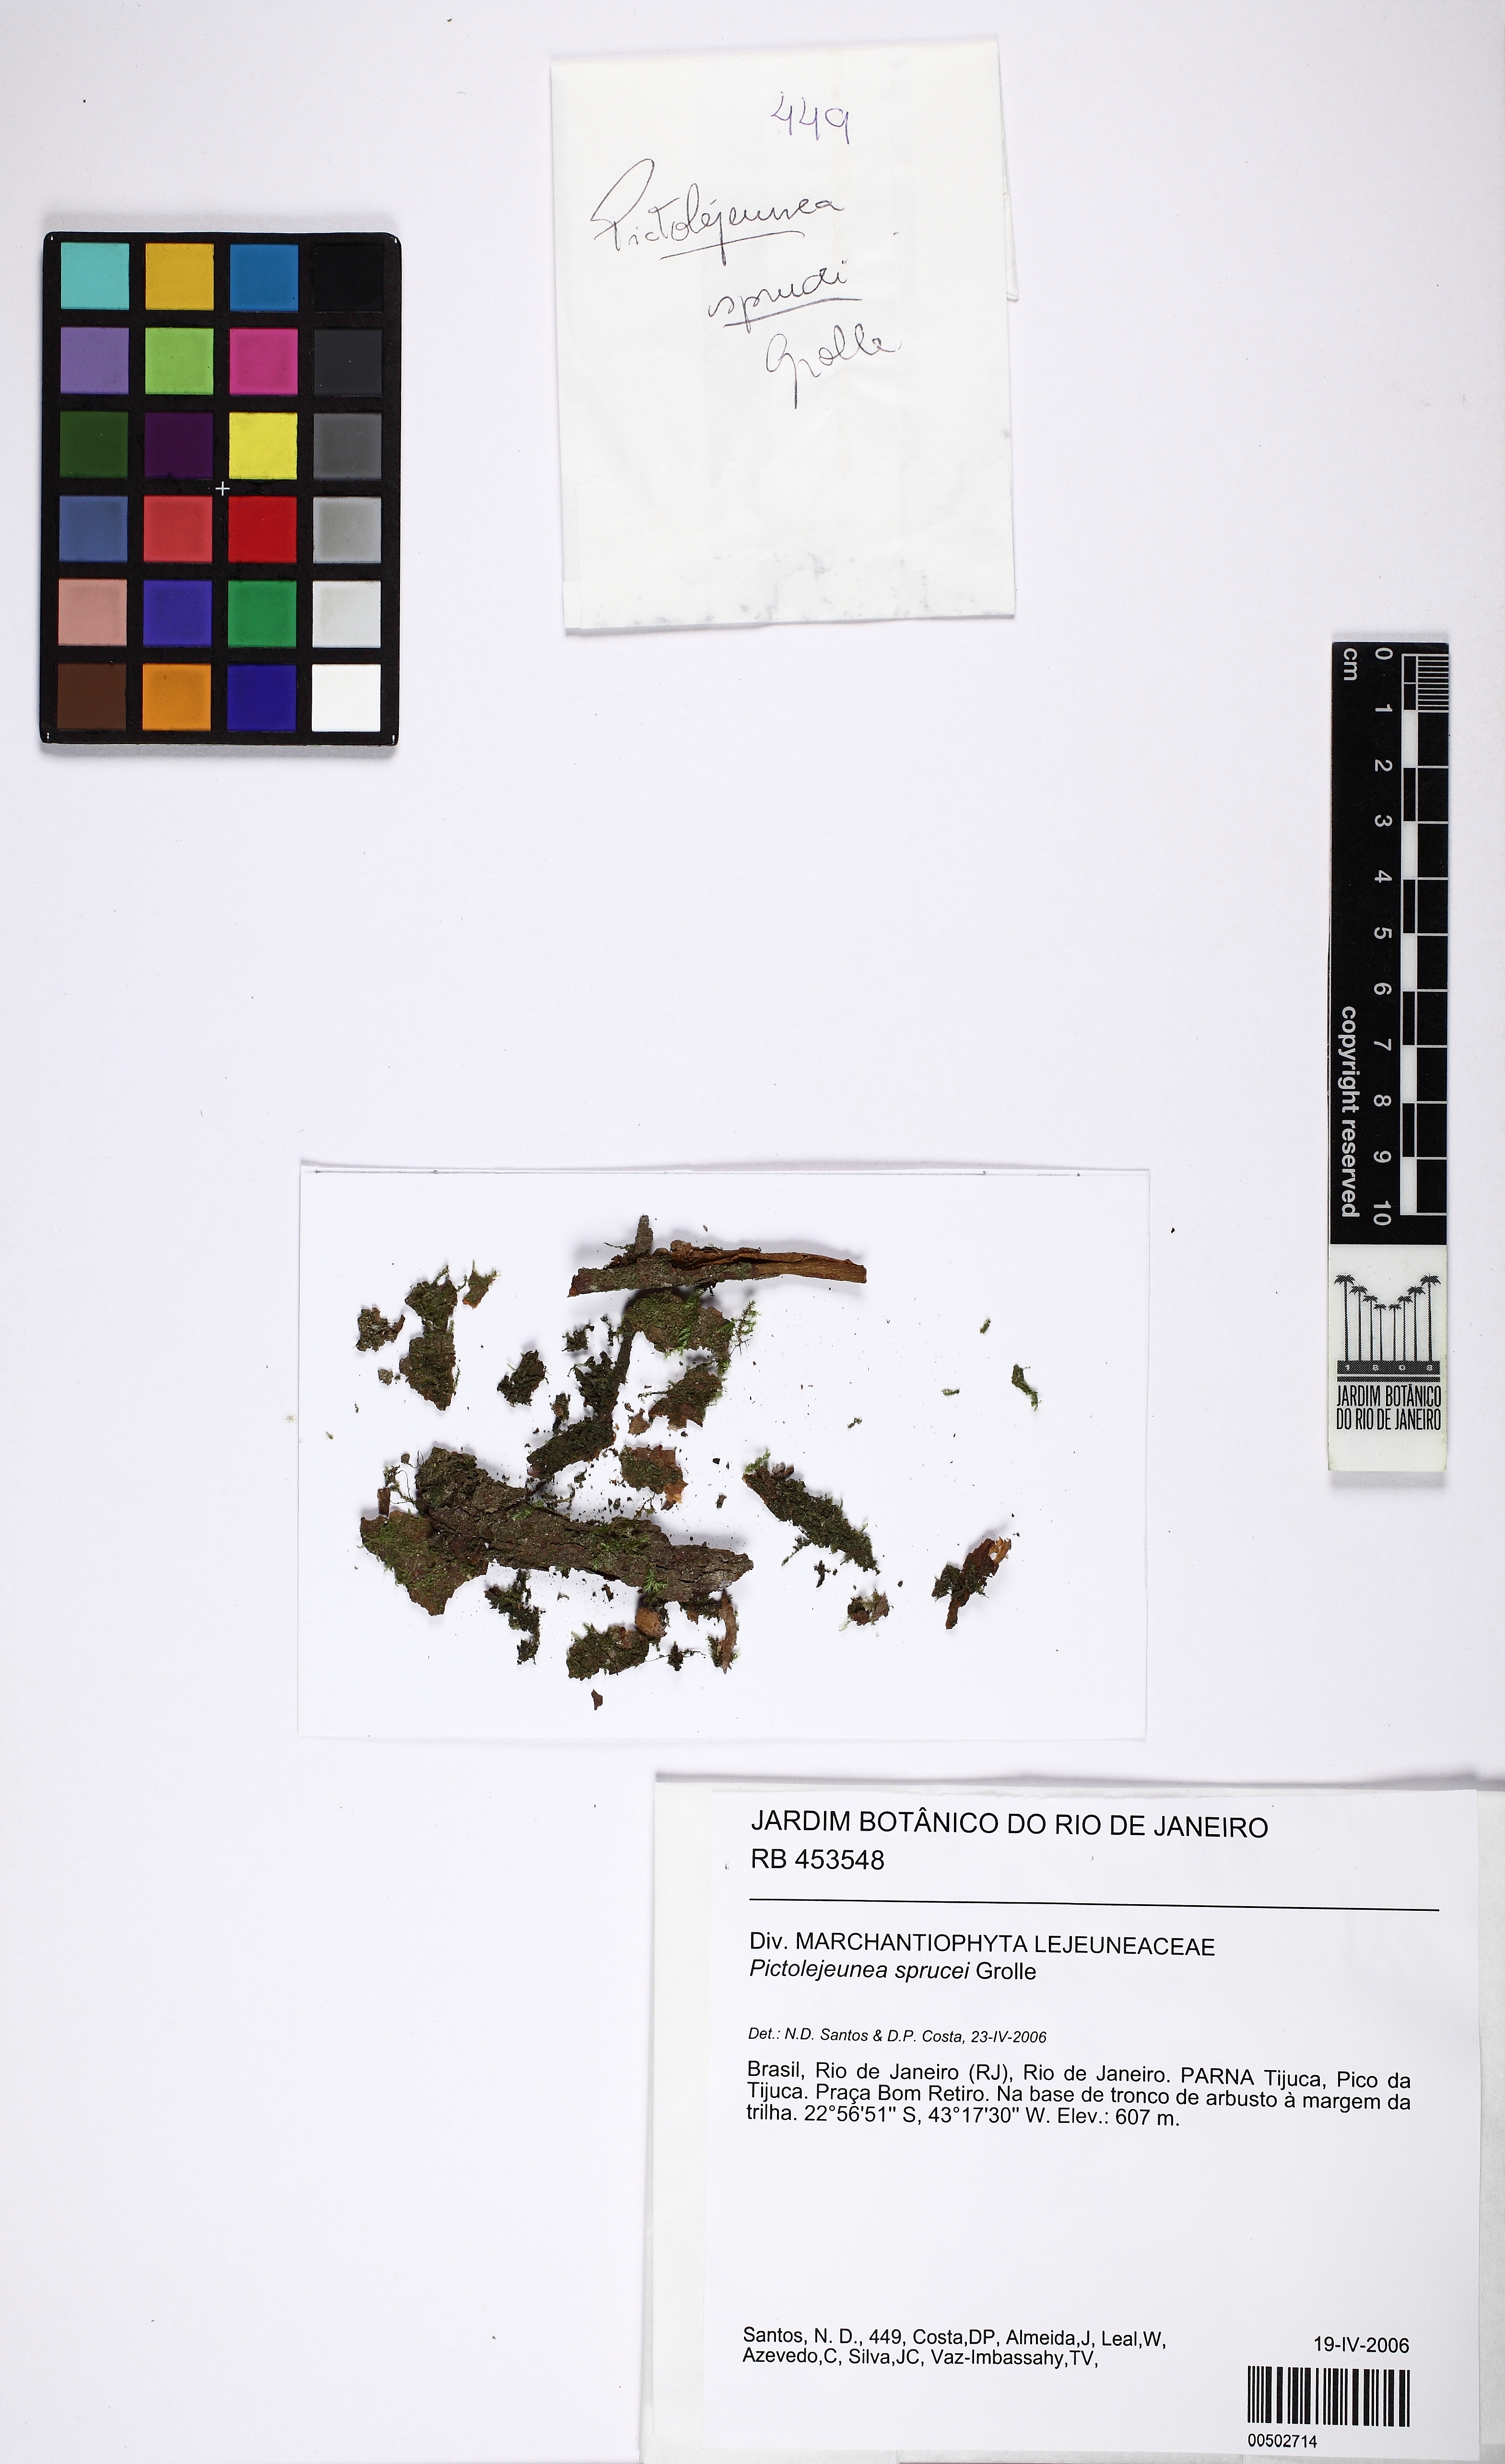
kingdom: Plantae
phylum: Marchantiophyta
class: Jungermanniopsida
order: Porellales
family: Lejeuneaceae
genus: Pictolejeunea
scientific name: Pictolejeunea sprucei
